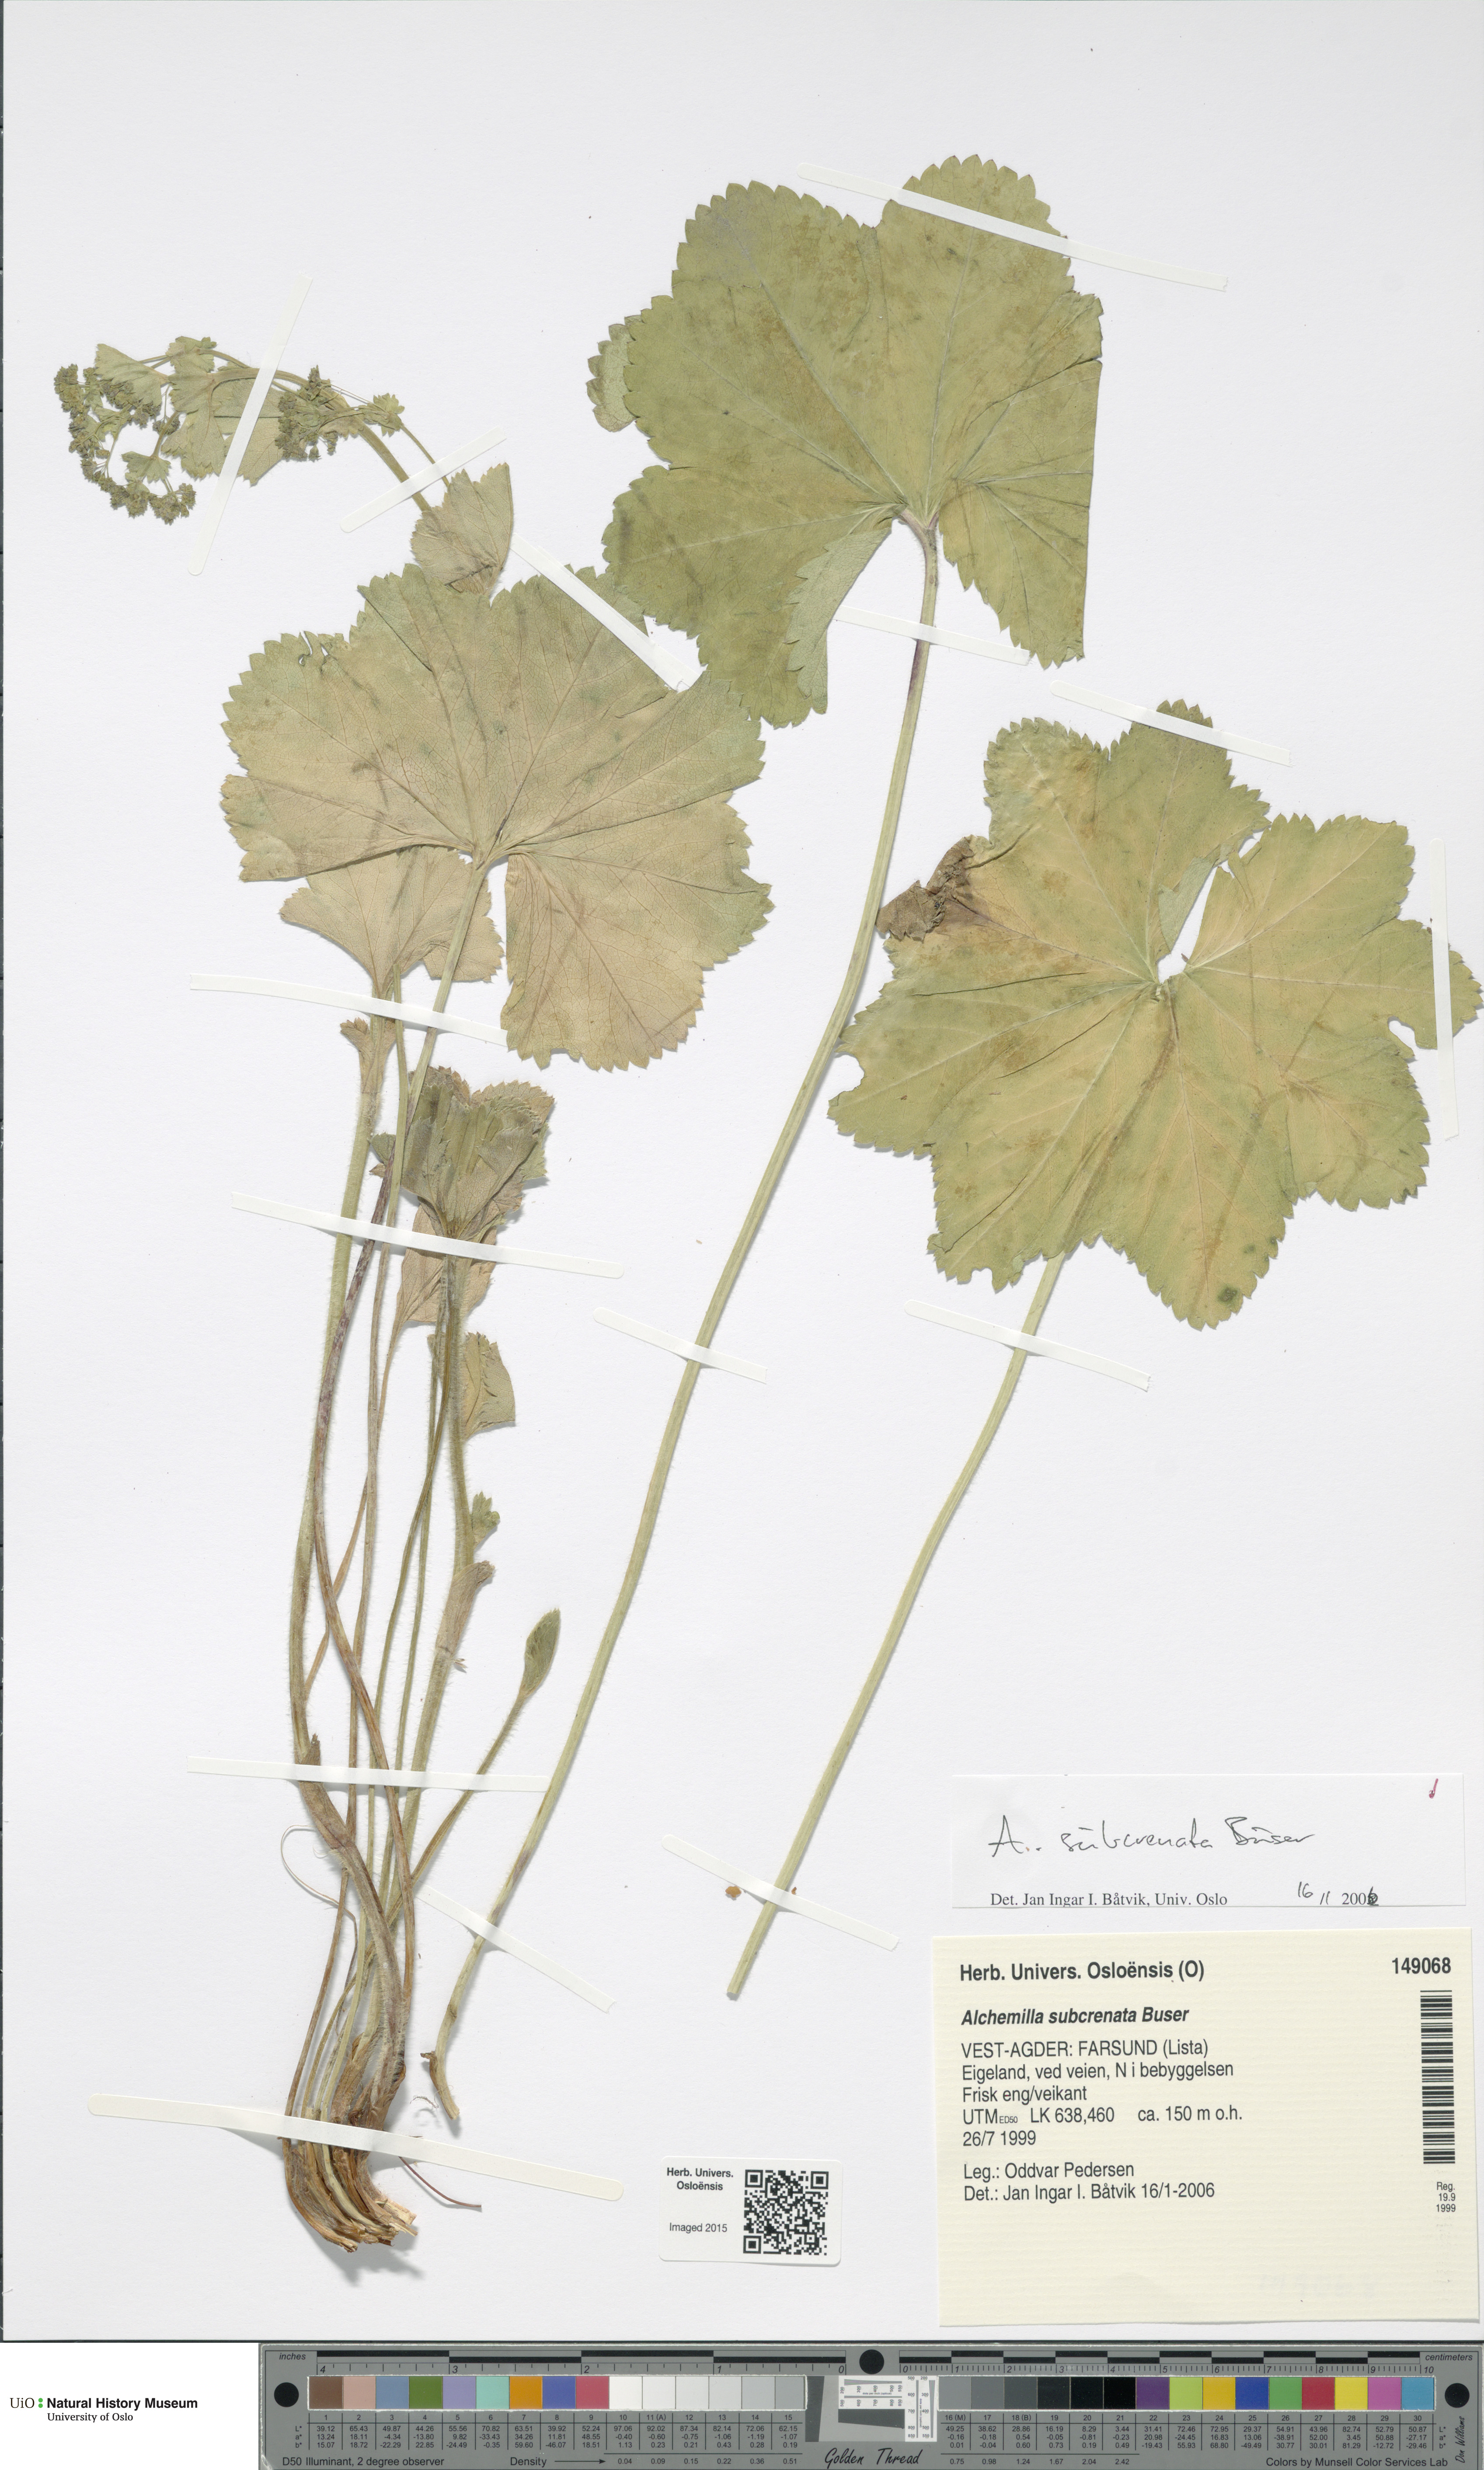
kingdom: Plantae
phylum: Tracheophyta
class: Magnoliopsida
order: Rosales
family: Rosaceae
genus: Alchemilla
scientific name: Alchemilla subcrenata
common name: Broadtooth lady's mantle
